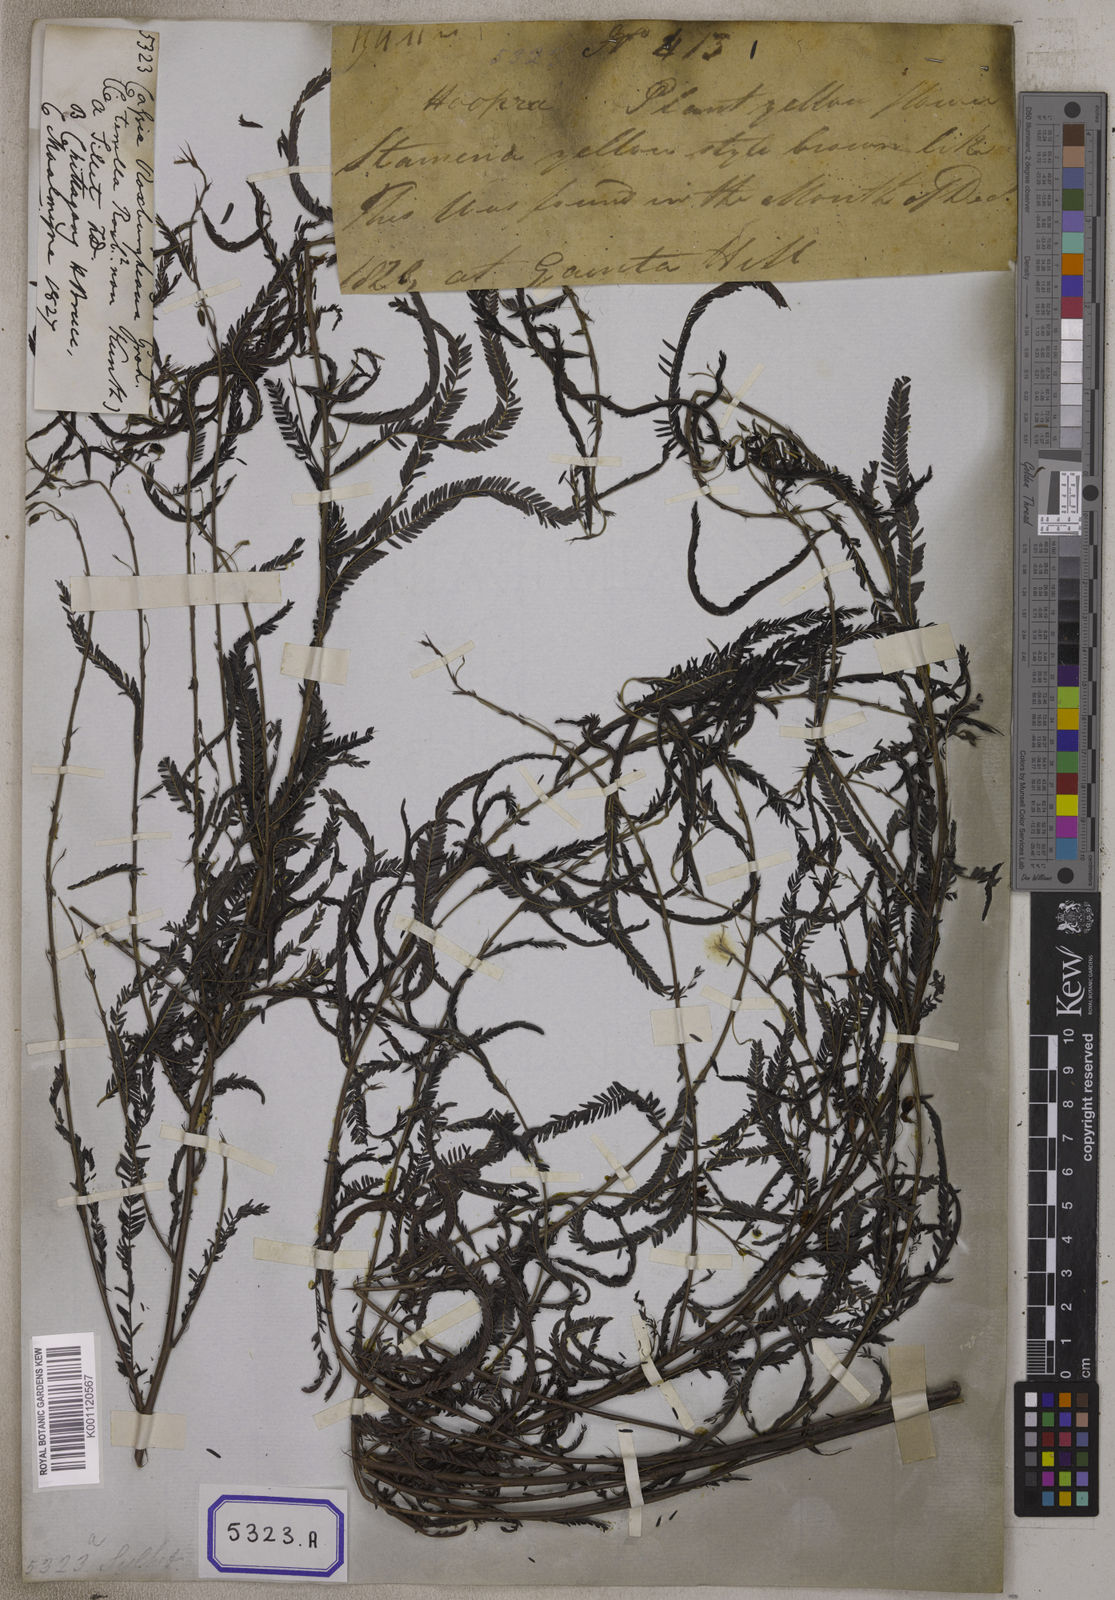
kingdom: Plantae
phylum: Tracheophyta
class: Magnoliopsida
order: Fabales
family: Fabaceae
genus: Chamaecrista
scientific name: Chamaecrista mimosoides
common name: Fish-bone cassia
